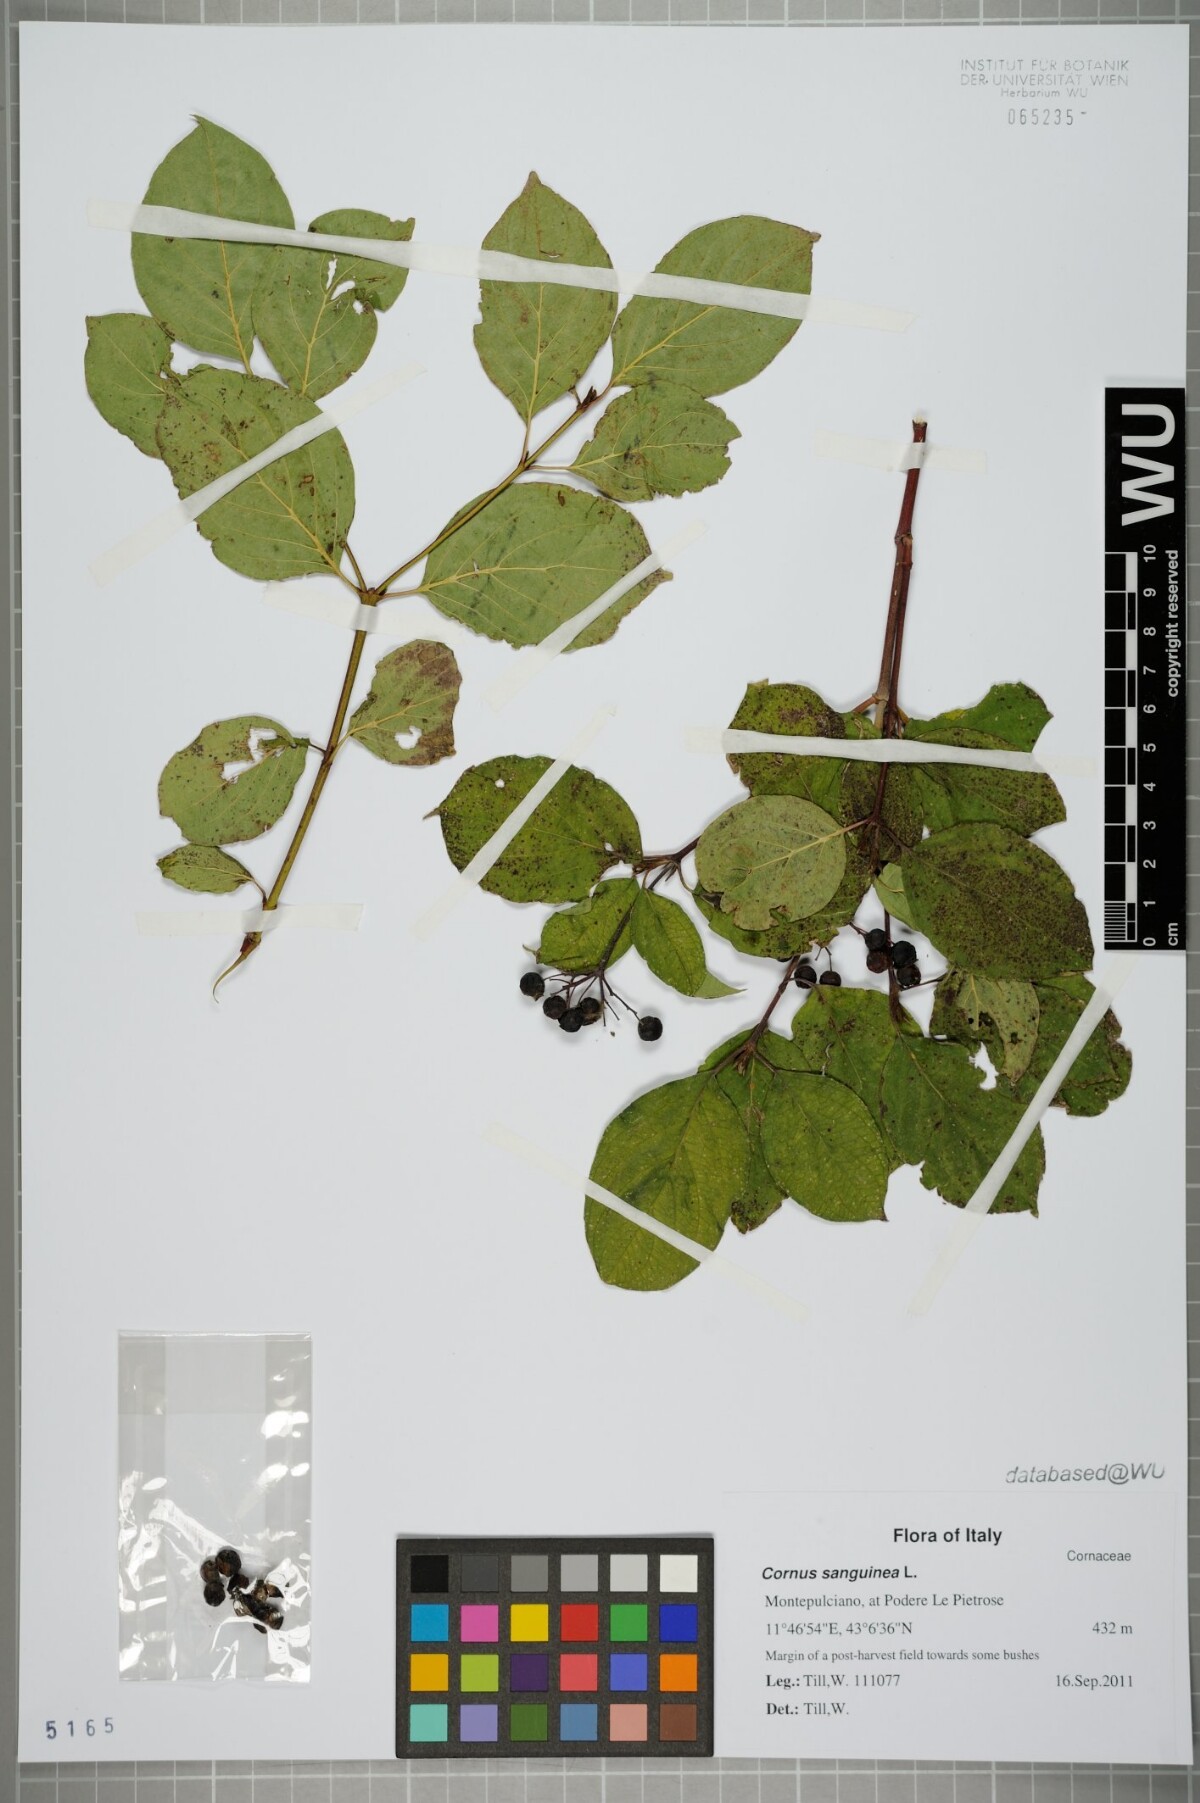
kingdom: Plantae
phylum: Tracheophyta
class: Magnoliopsida
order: Cornales
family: Cornaceae
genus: Cornus
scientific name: Cornus sanguinea
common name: Dogwood
